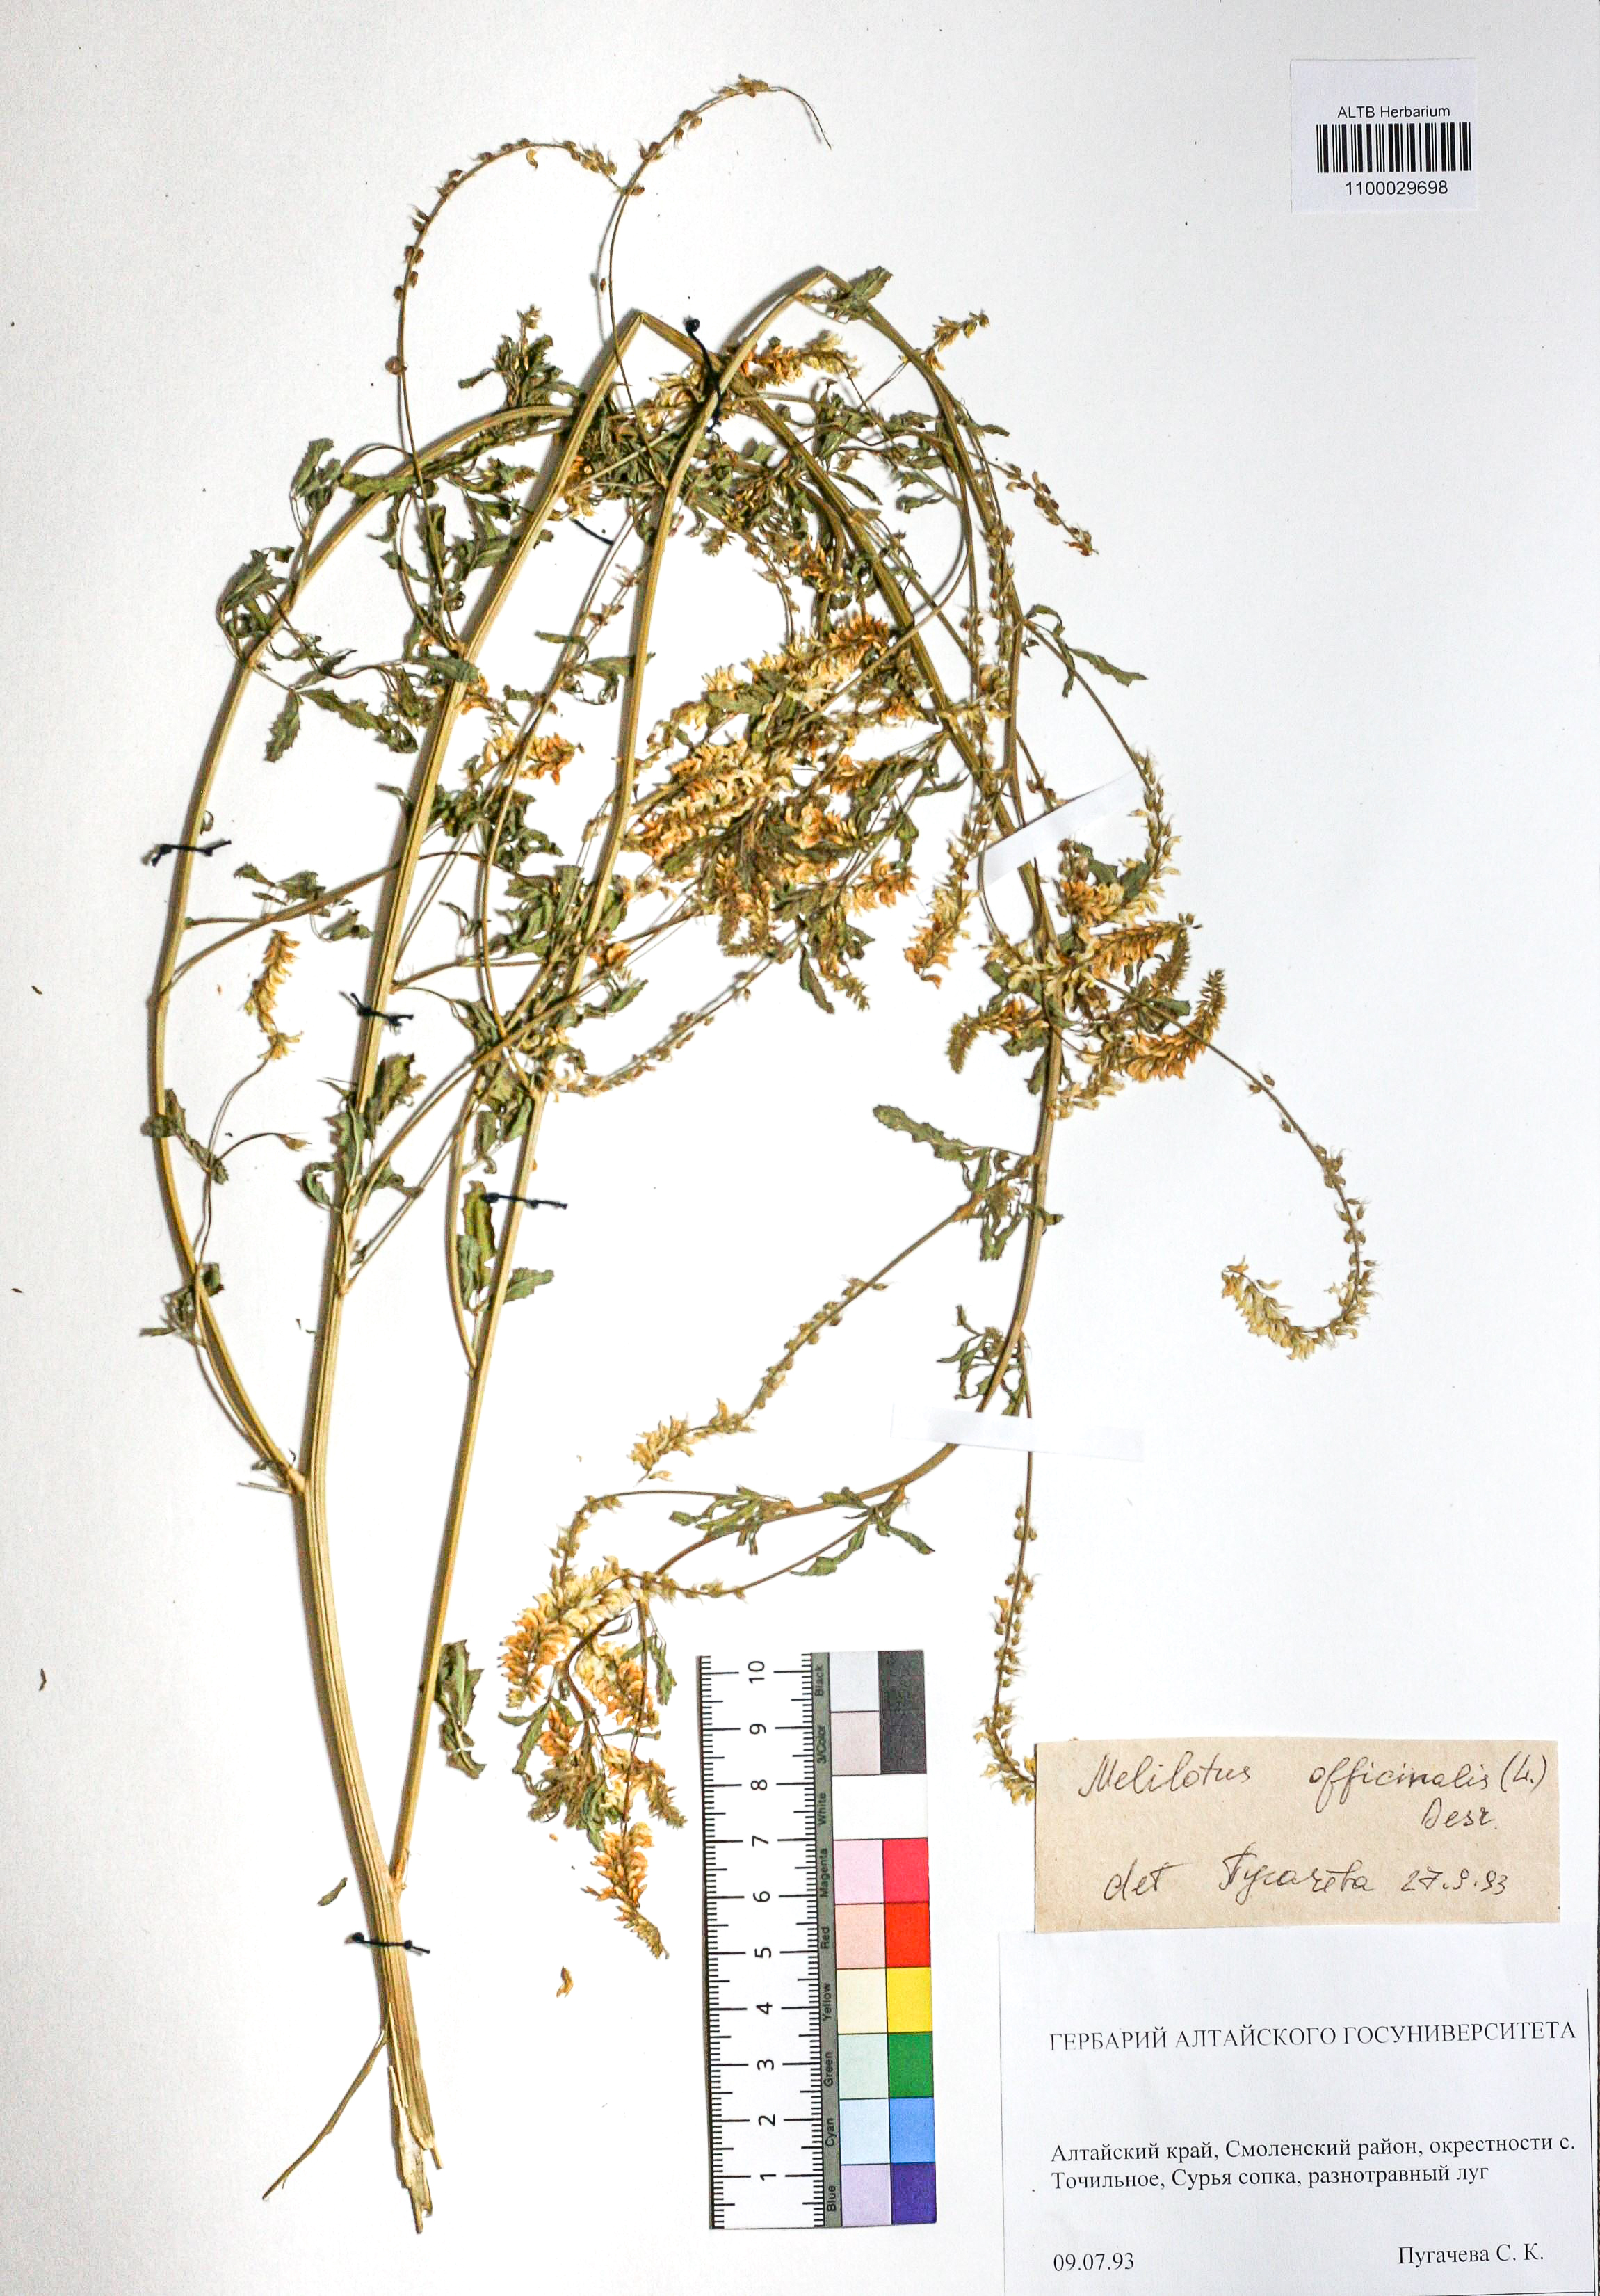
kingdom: Plantae
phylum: Tracheophyta
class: Magnoliopsida
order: Fabales
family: Fabaceae
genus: Melilotus
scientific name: Melilotus officinalis
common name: Sweetclover
